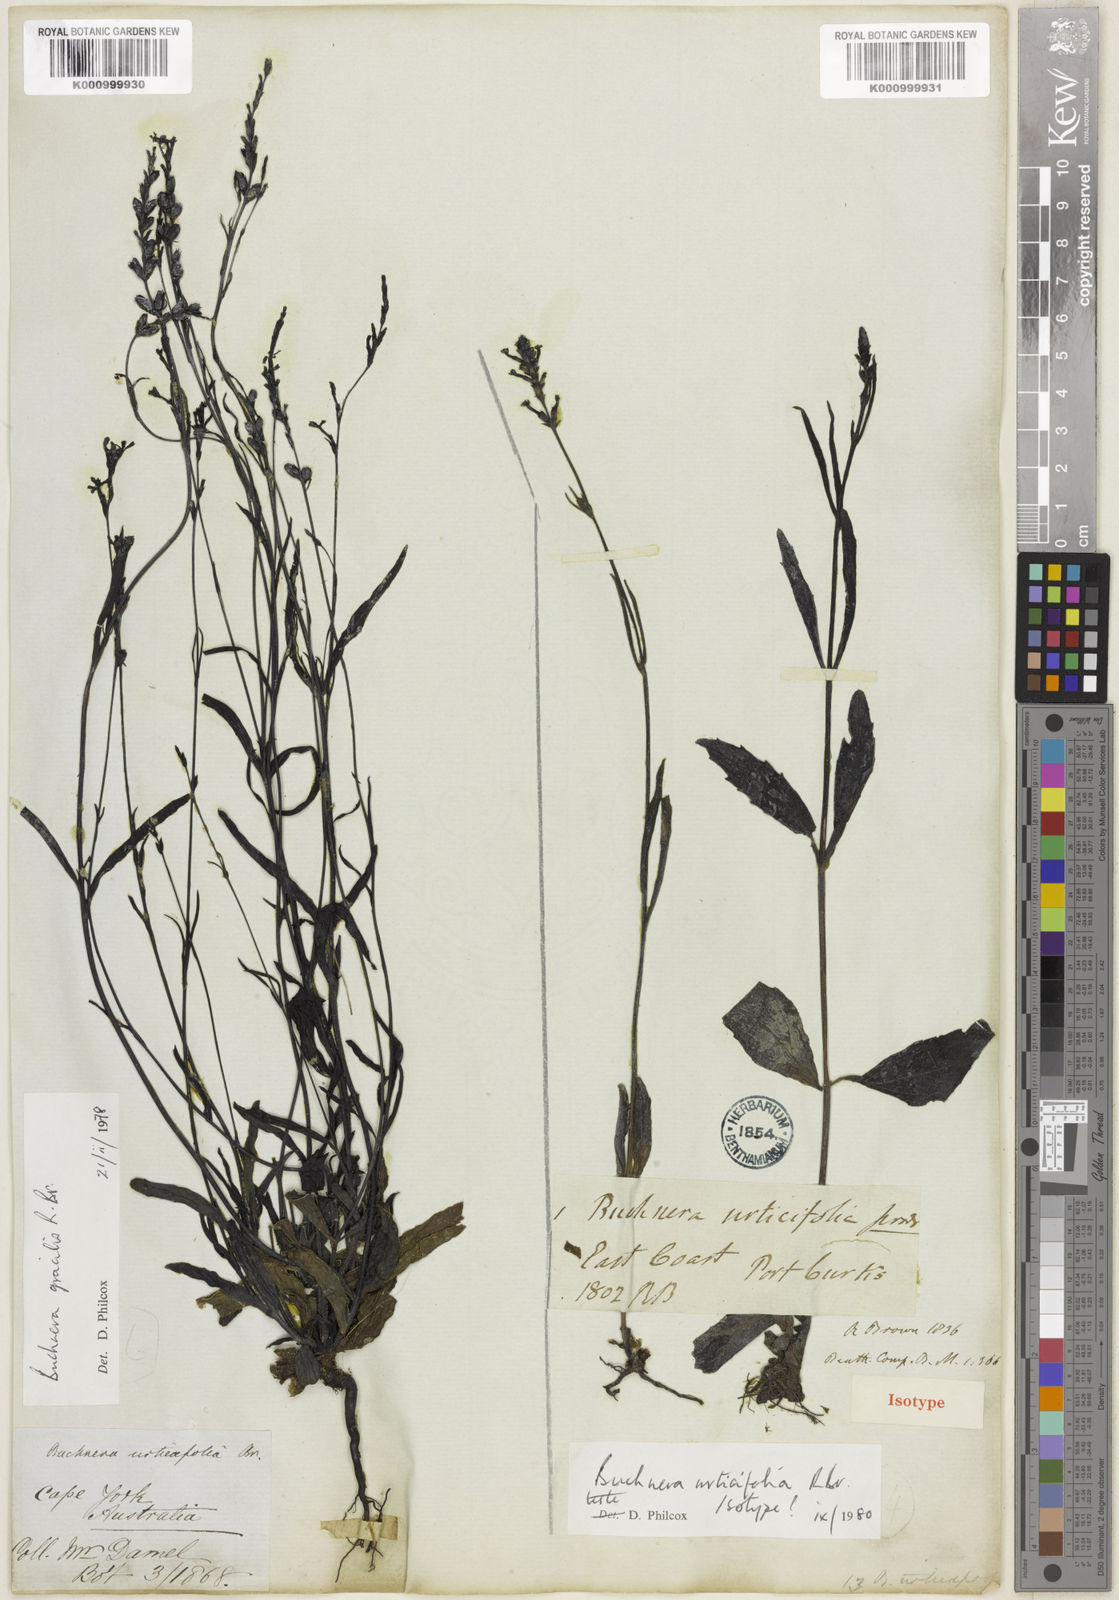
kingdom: Plantae
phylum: Tracheophyta
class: Magnoliopsida
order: Lamiales
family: Orobanchaceae
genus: Buchnera
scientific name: Buchnera urticifolia
